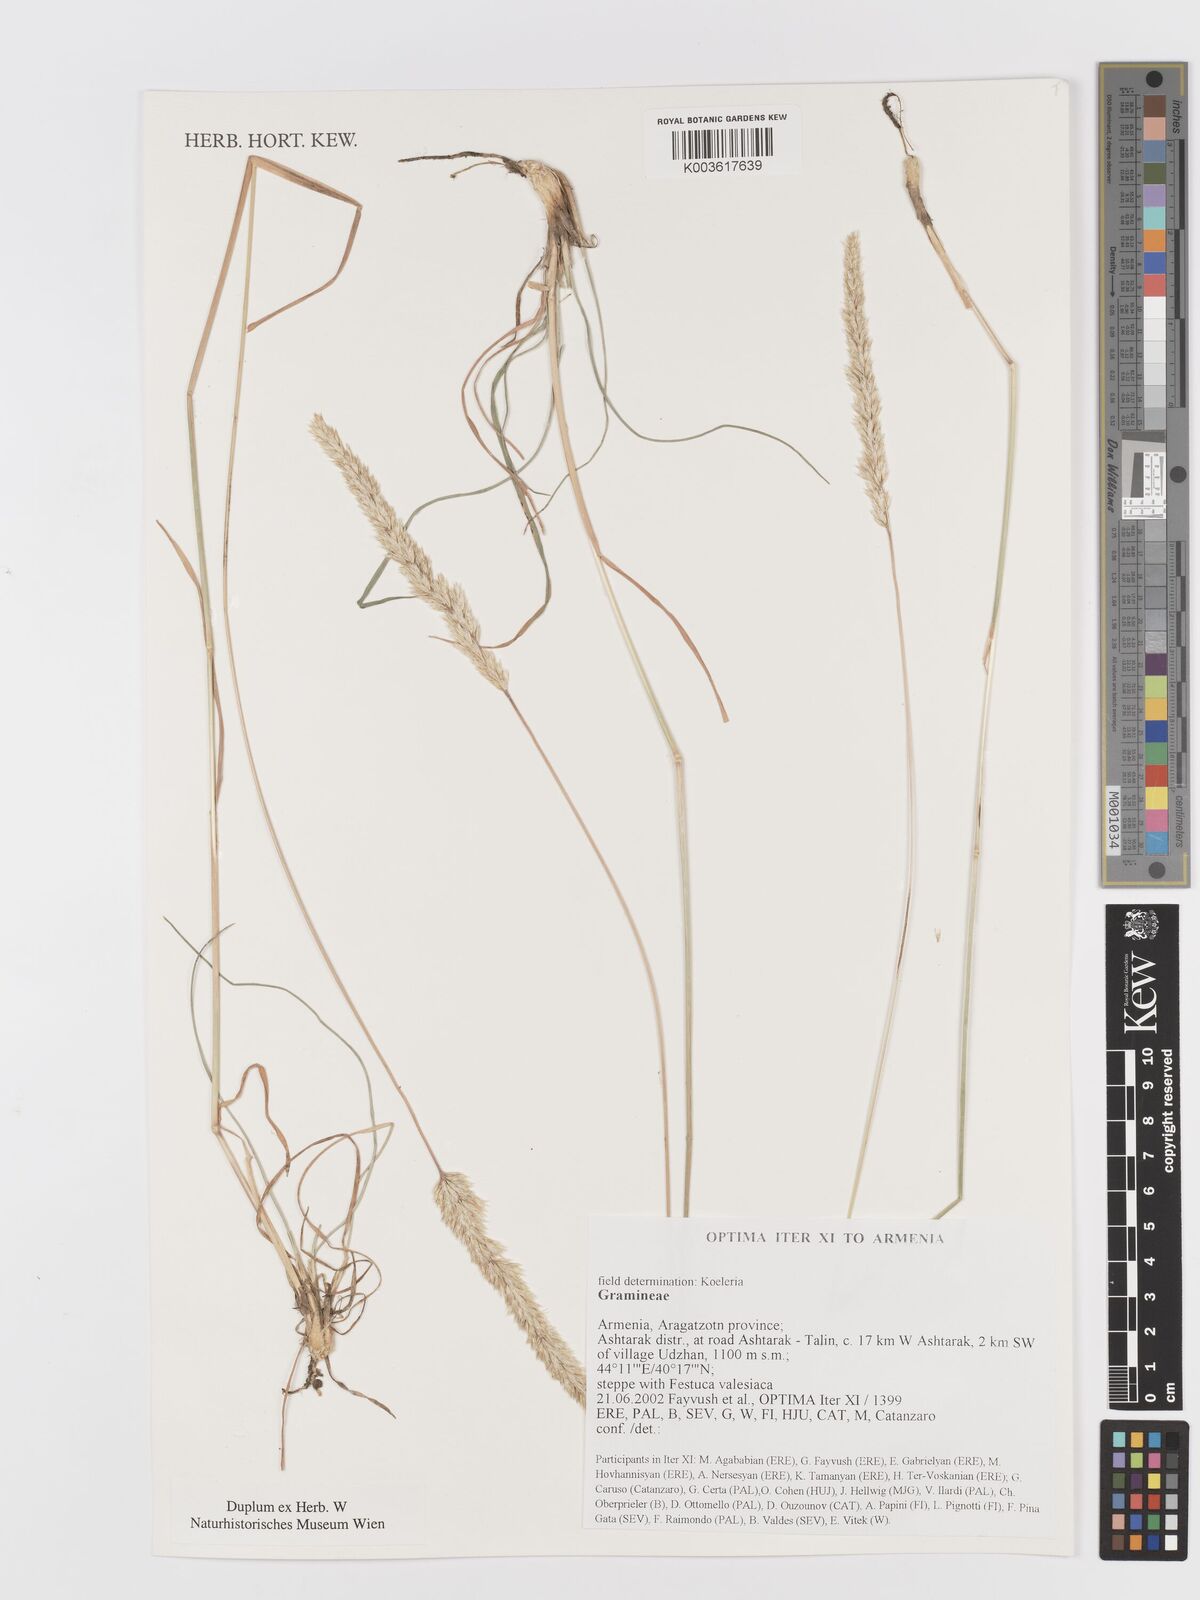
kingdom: Plantae
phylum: Tracheophyta
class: Liliopsida
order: Poales
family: Poaceae
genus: Koeleria
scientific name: Koeleria
